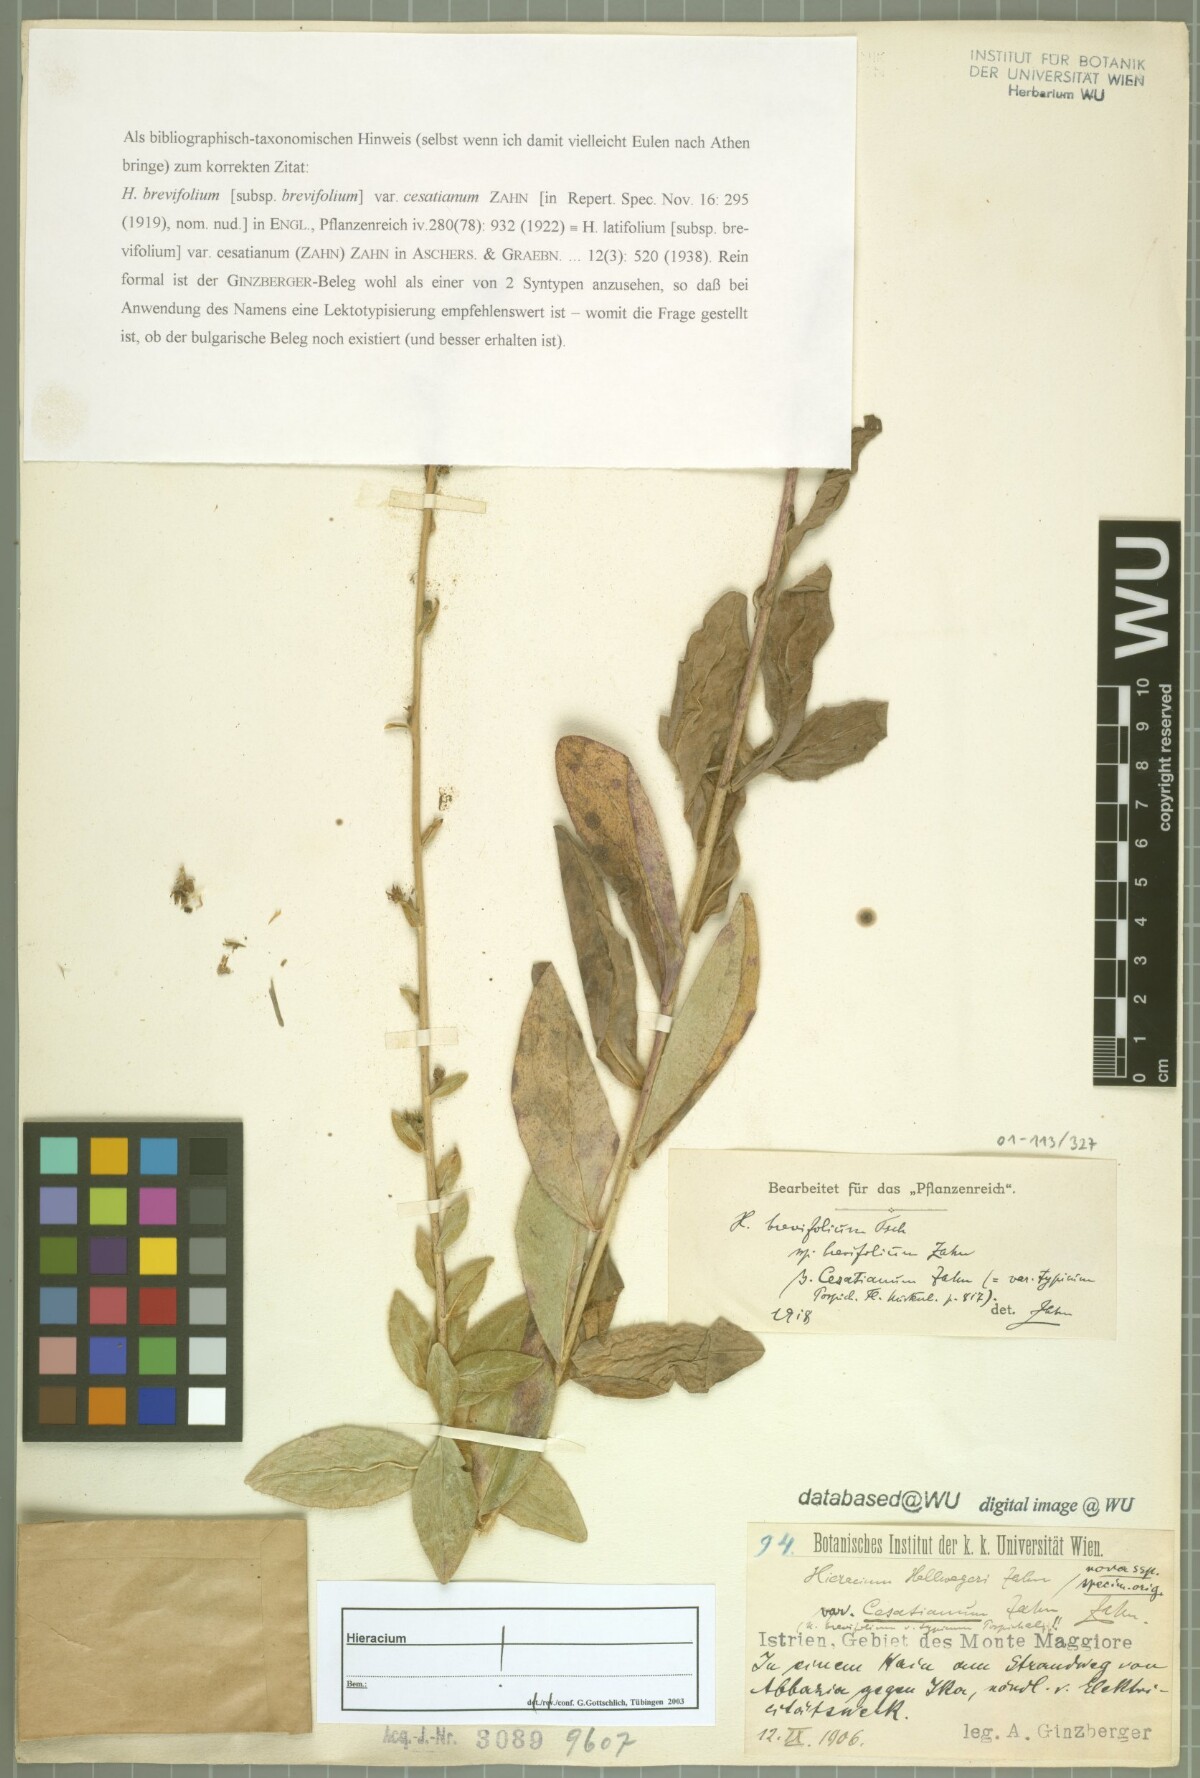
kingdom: Plantae
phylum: Tracheophyta
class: Magnoliopsida
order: Asterales
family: Asteraceae
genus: Hieracium
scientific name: Hieracium brevifolium
